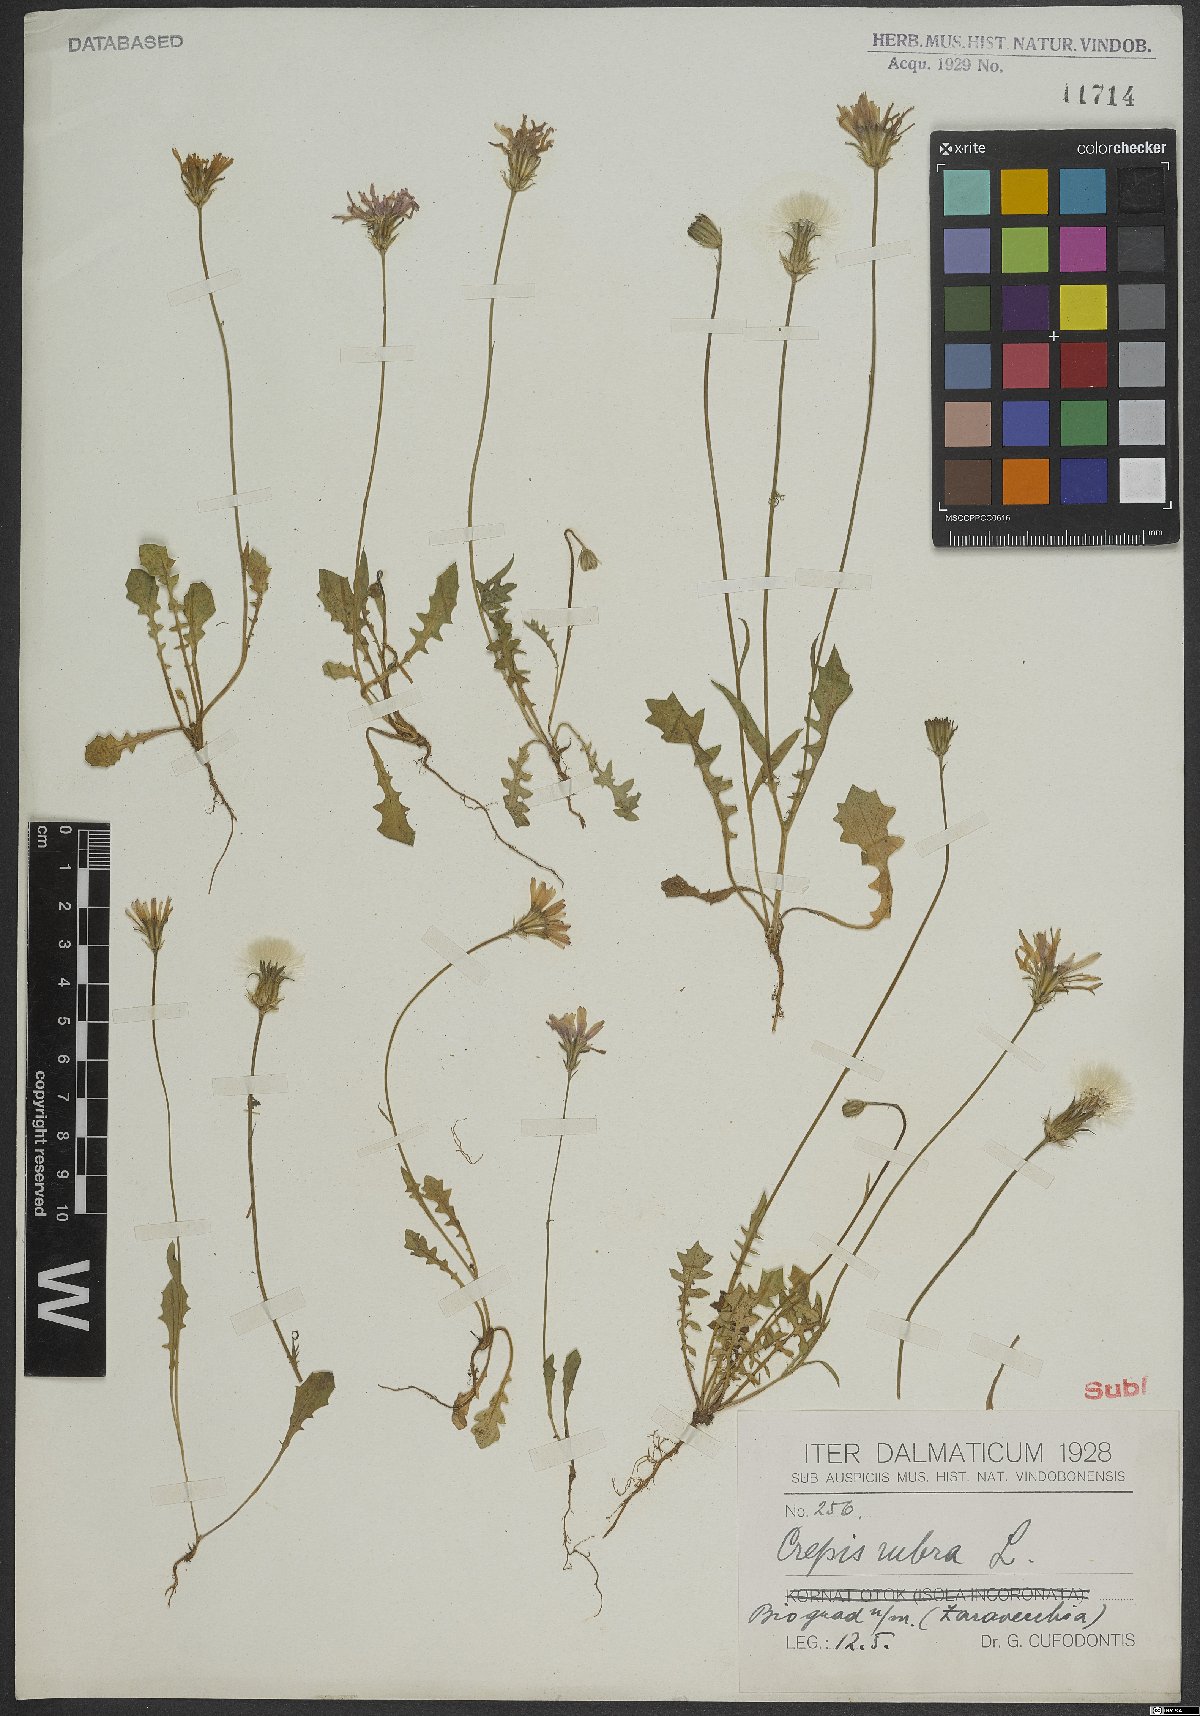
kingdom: Plantae
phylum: Tracheophyta
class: Magnoliopsida
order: Asterales
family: Asteraceae
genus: Crepis
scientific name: Crepis rubra
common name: Pink hawk's-beard
